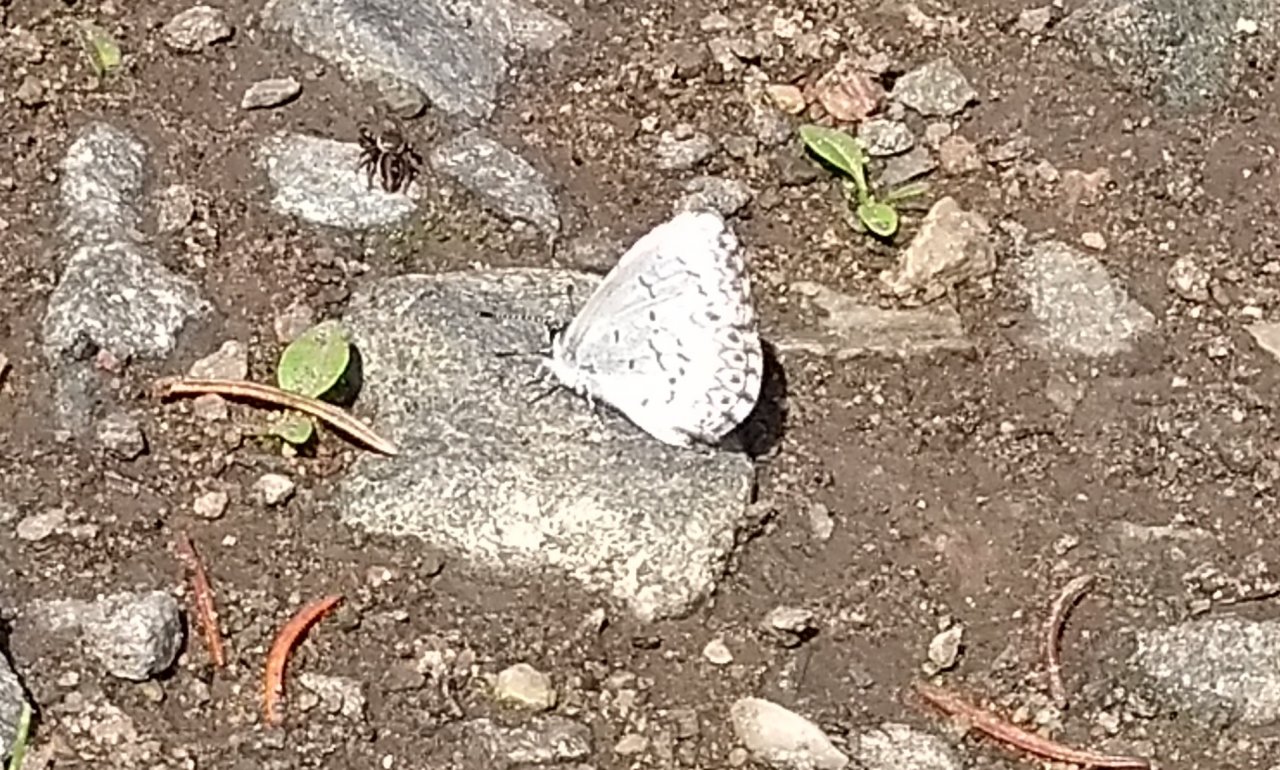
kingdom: Animalia
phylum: Arthropoda
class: Insecta
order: Lepidoptera
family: Lycaenidae
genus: Celastrina
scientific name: Celastrina
